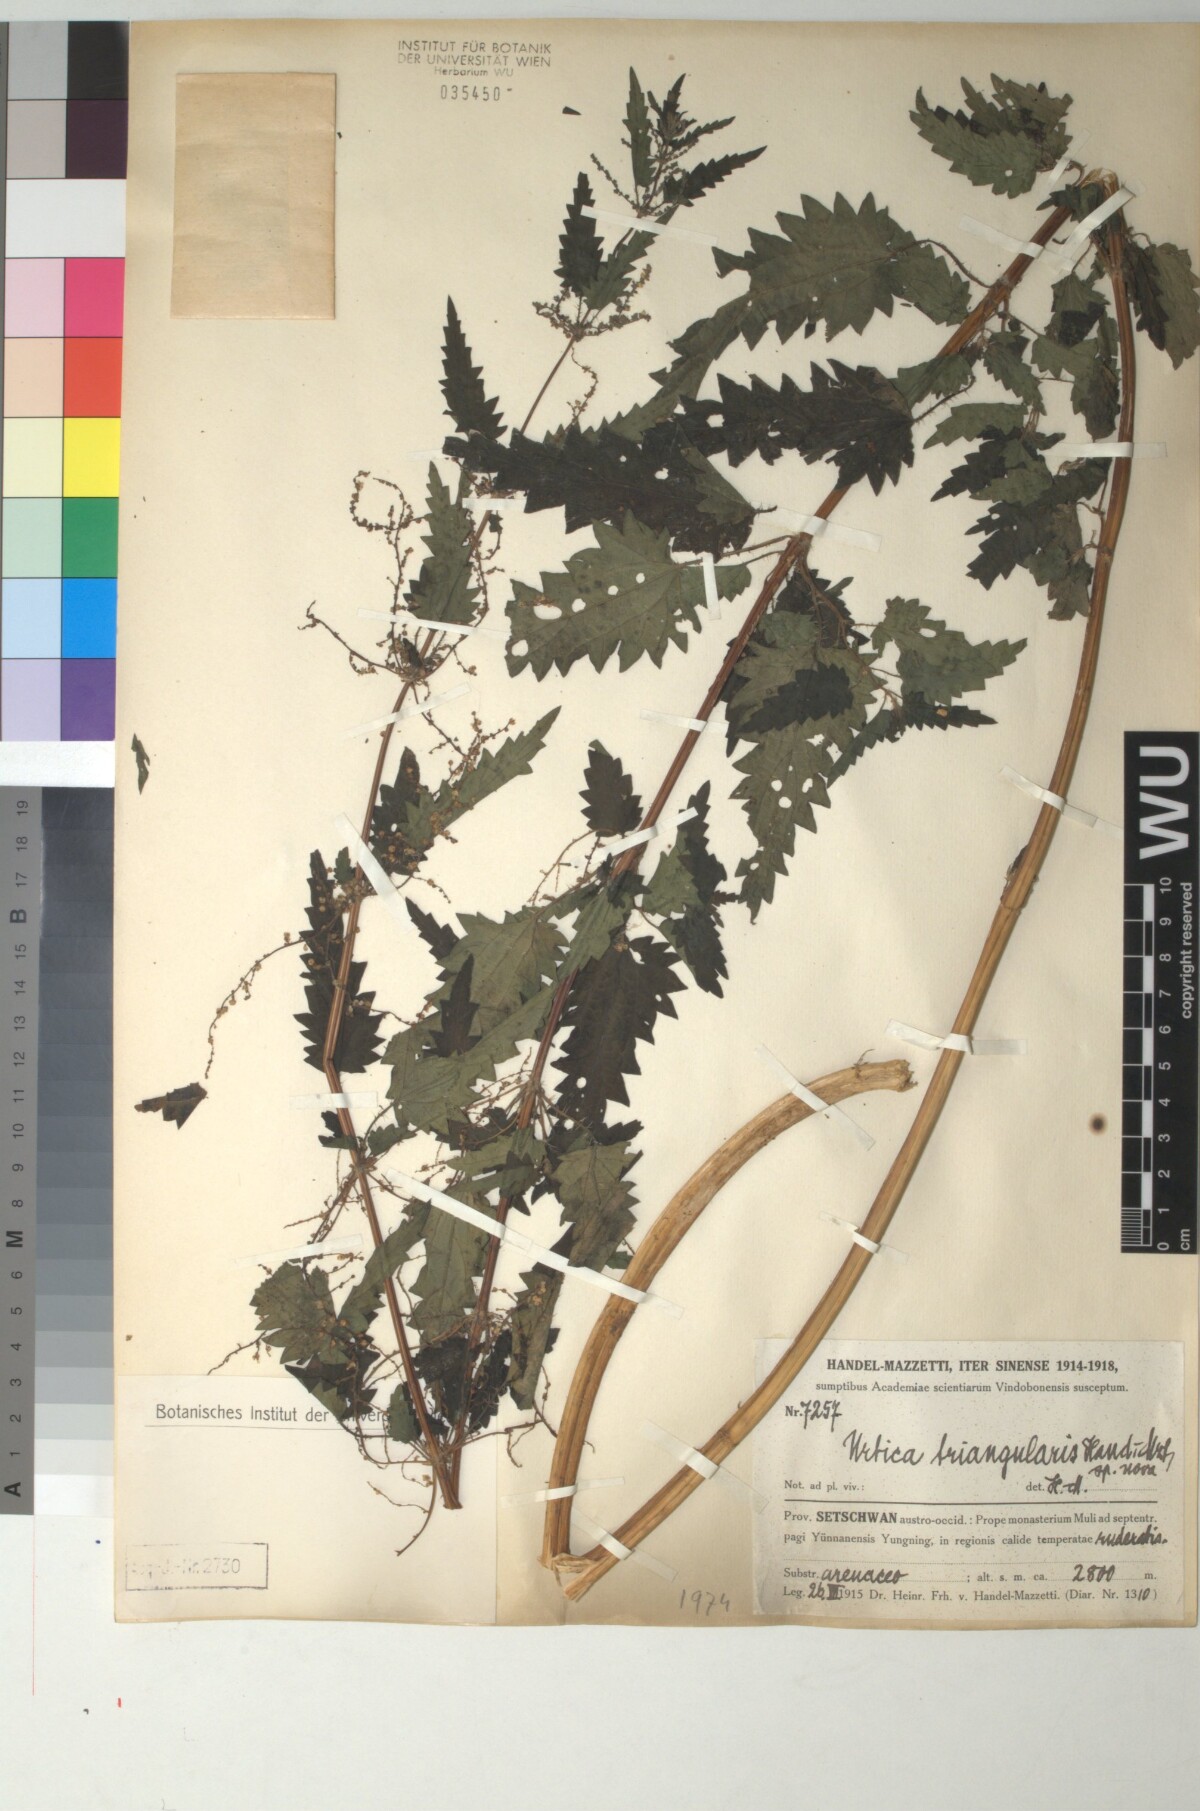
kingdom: Plantae
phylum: Tracheophyta
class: Magnoliopsida
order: Rosales
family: Urticaceae
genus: Urtica
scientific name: Urtica triangularis
